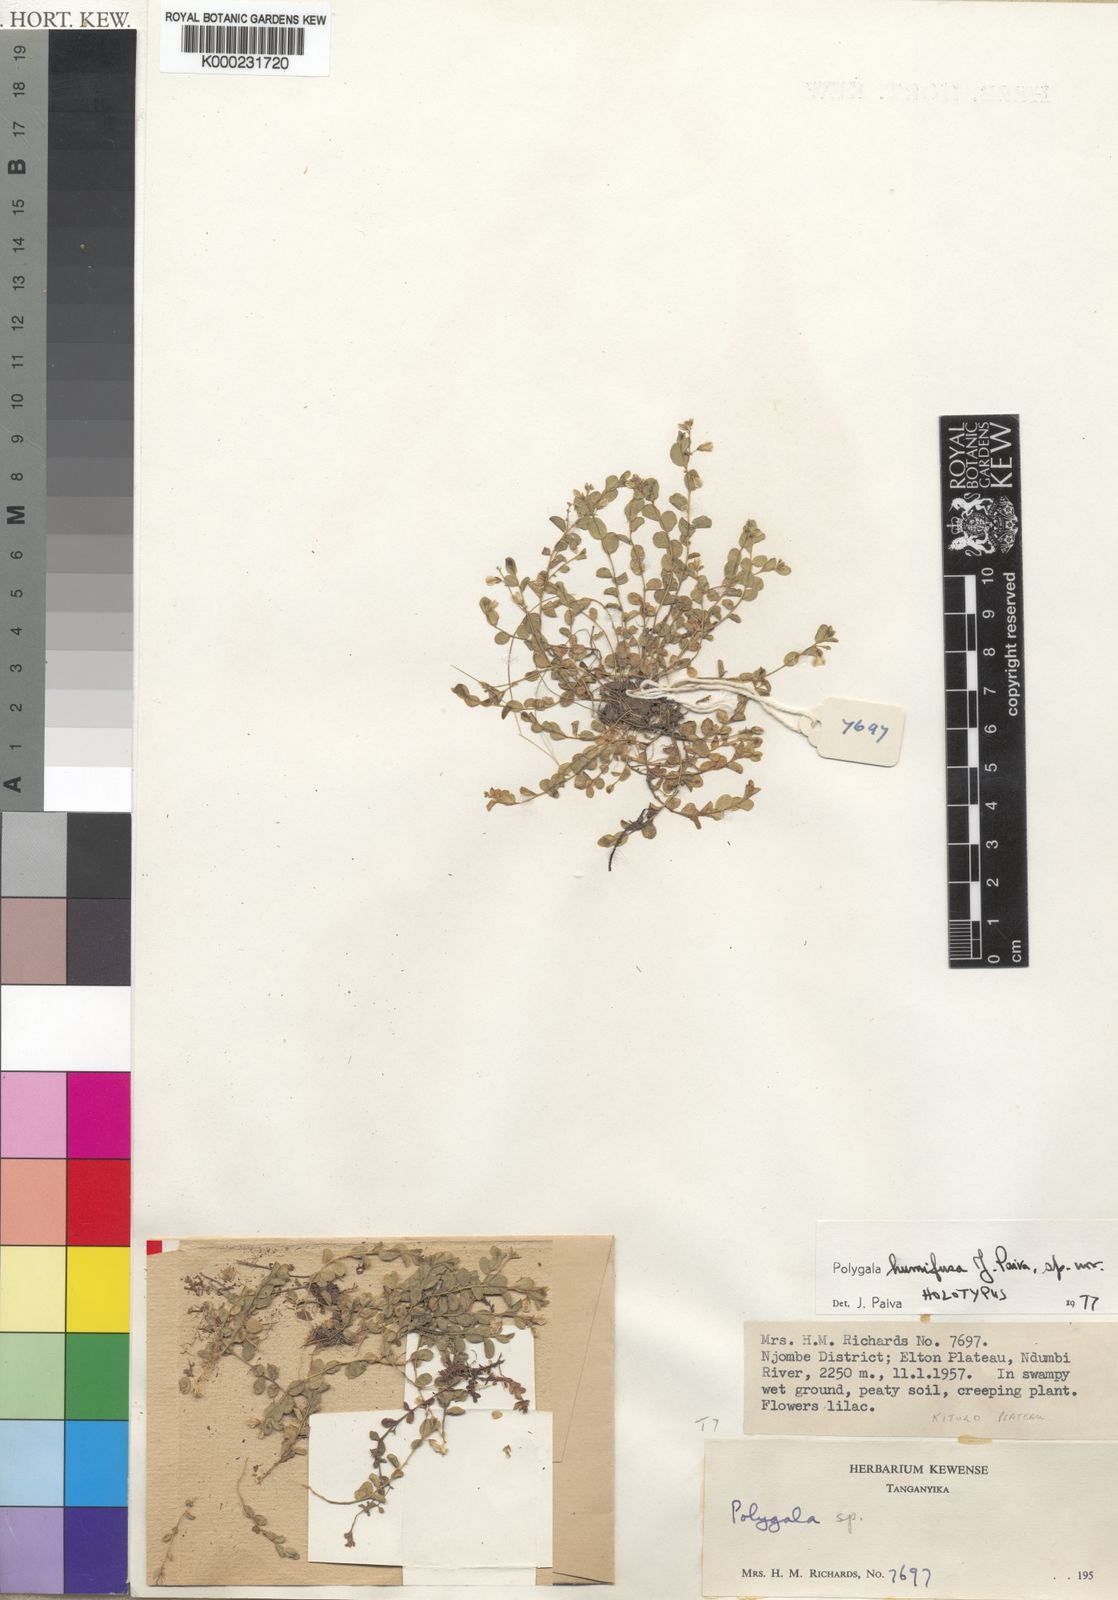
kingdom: Plantae
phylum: Tracheophyta
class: Magnoliopsida
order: Fabales
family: Polygalaceae
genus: Polygala
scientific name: Polygala humifusa
